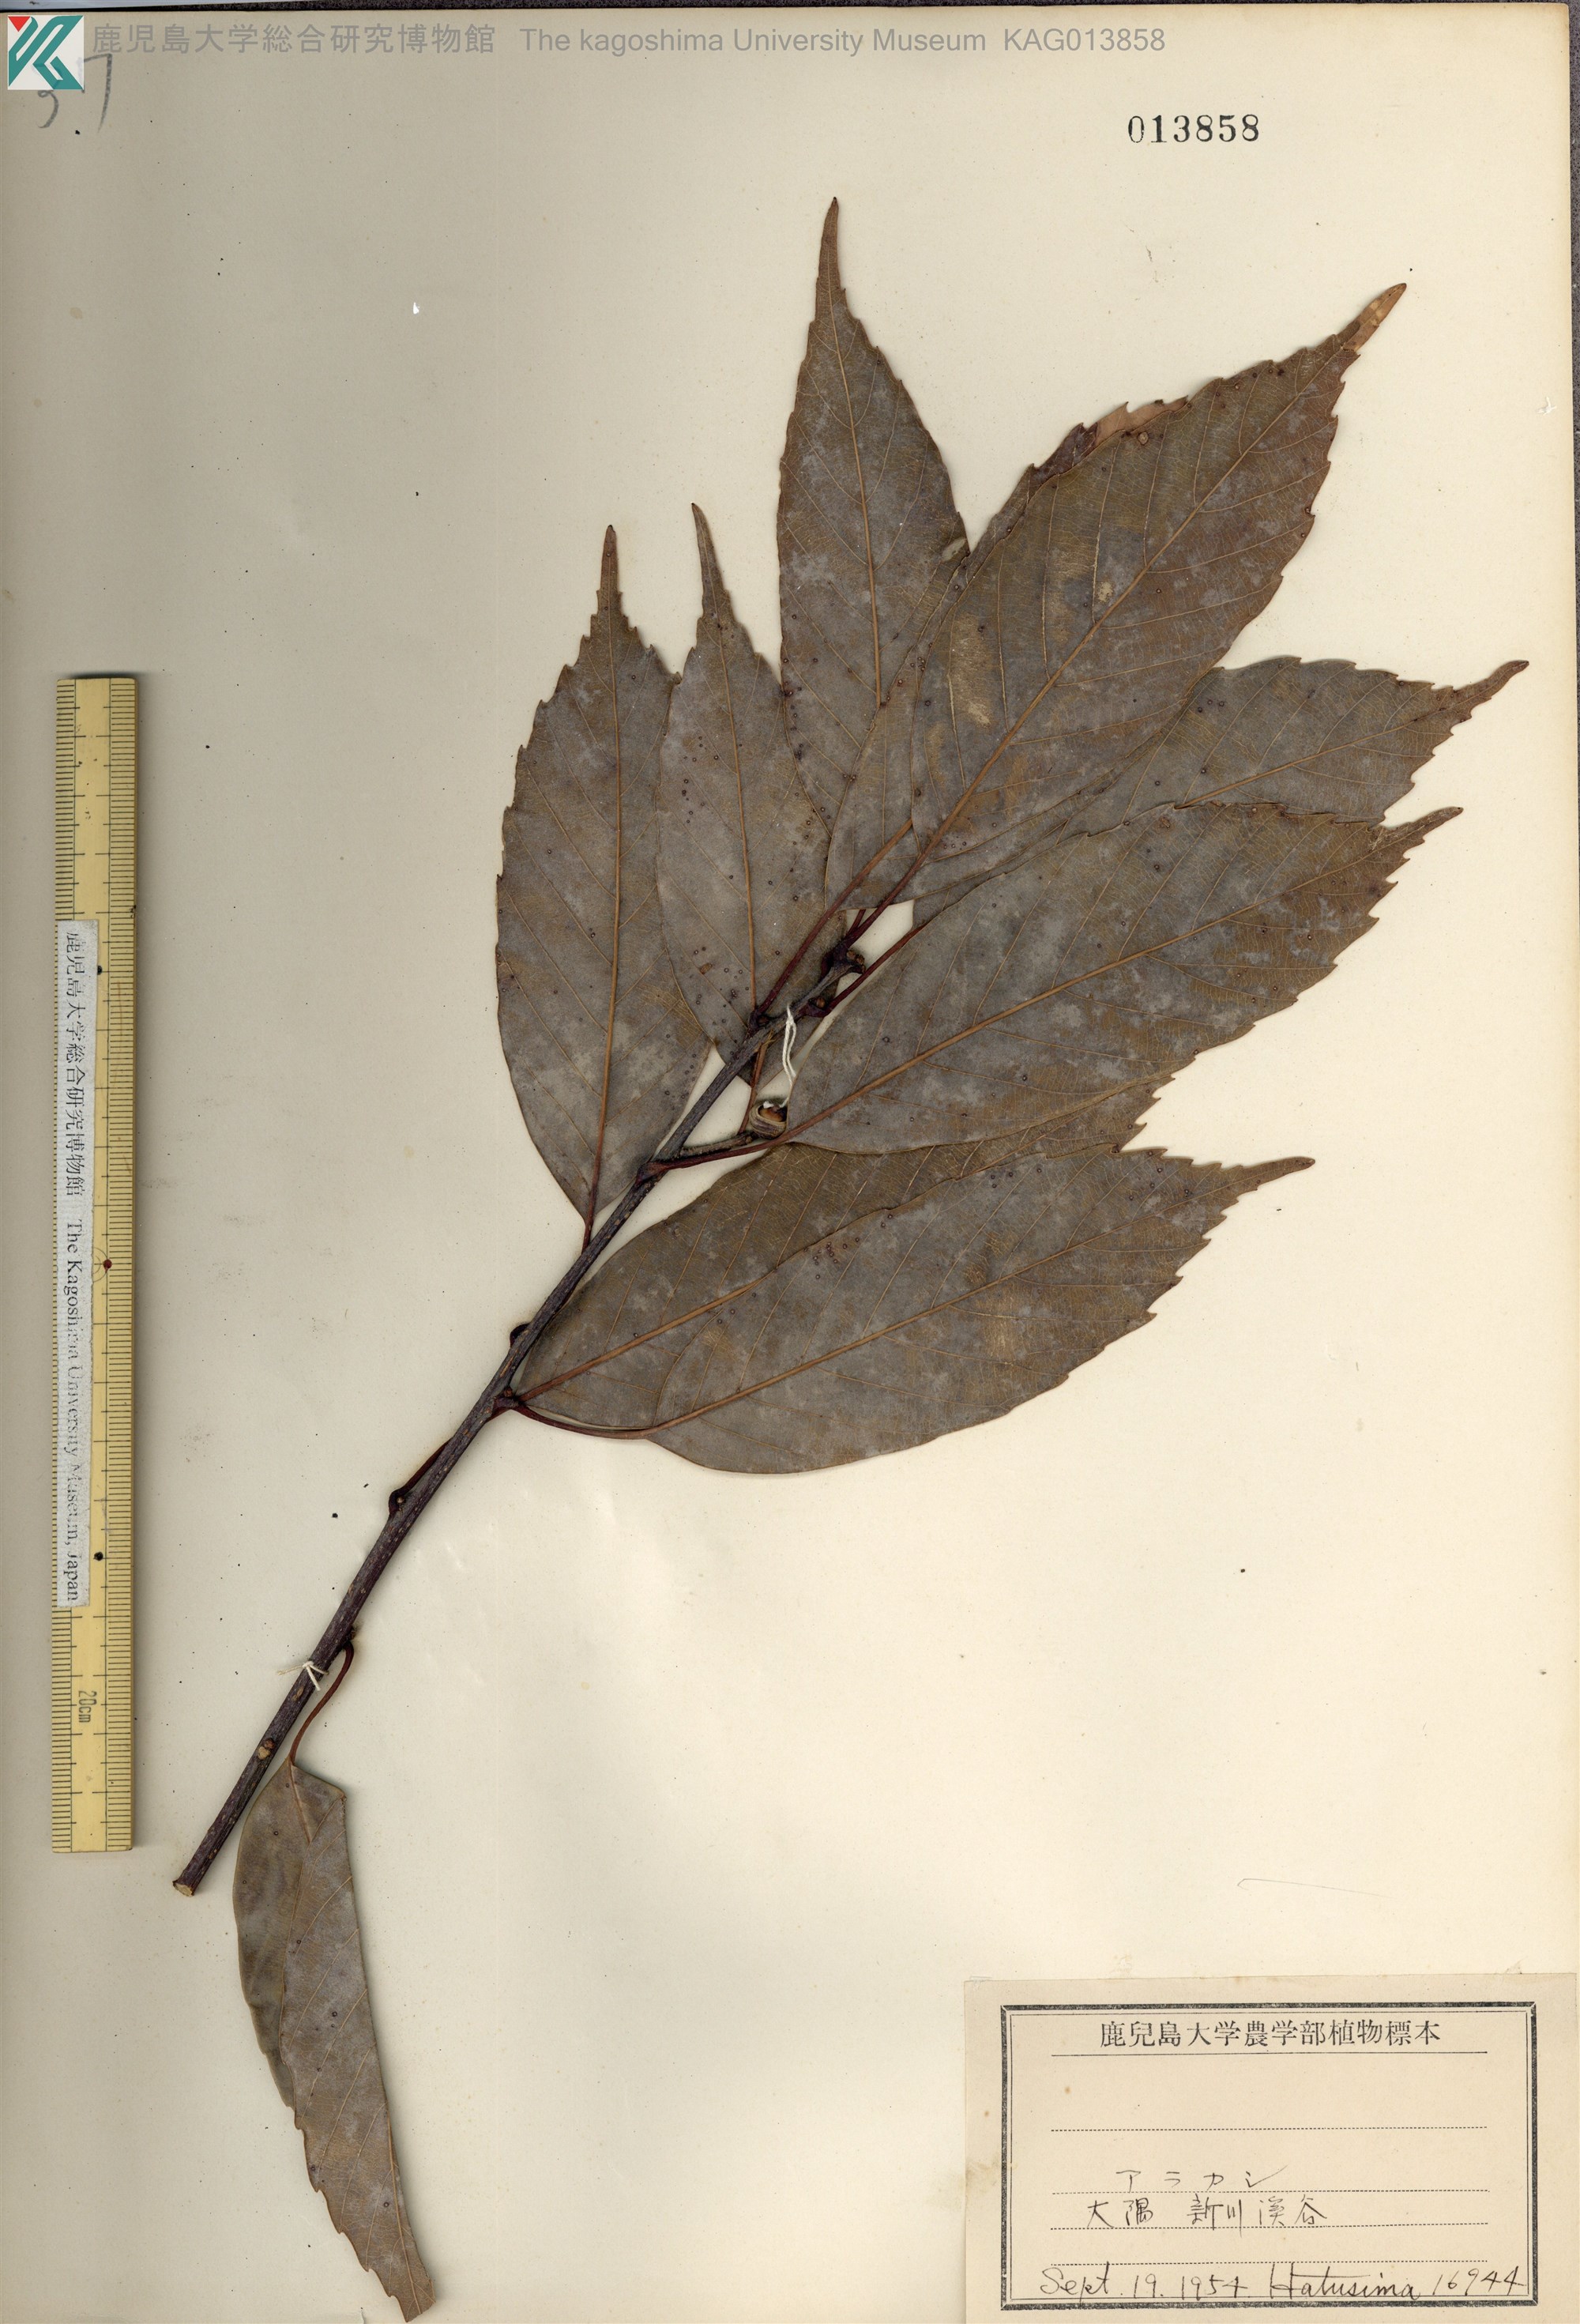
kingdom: Plantae
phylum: Tracheophyta
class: Magnoliopsida
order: Fagales
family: Fagaceae
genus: Quercus
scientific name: Quercus glauca
